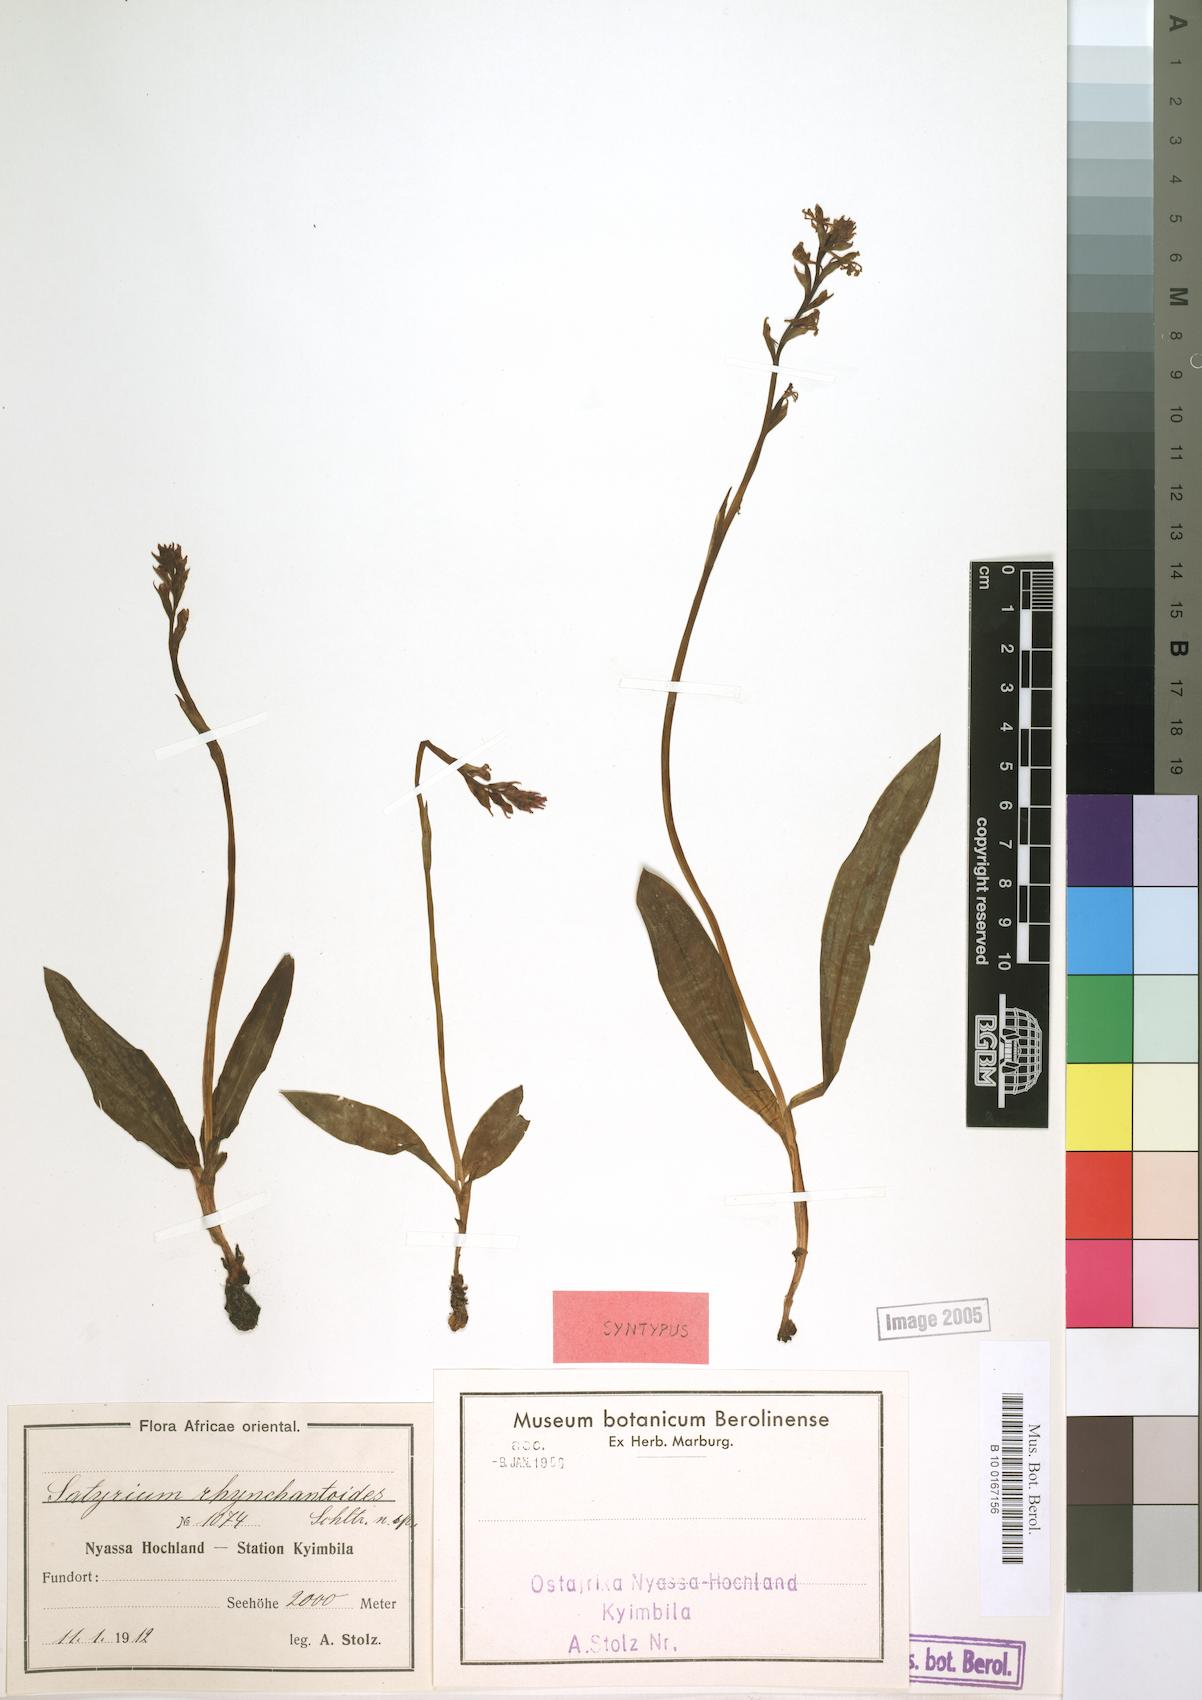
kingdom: Plantae
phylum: Tracheophyta
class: Liliopsida
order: Asparagales
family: Orchidaceae
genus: Satyrium
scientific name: Satyrium rhynchanthoides
